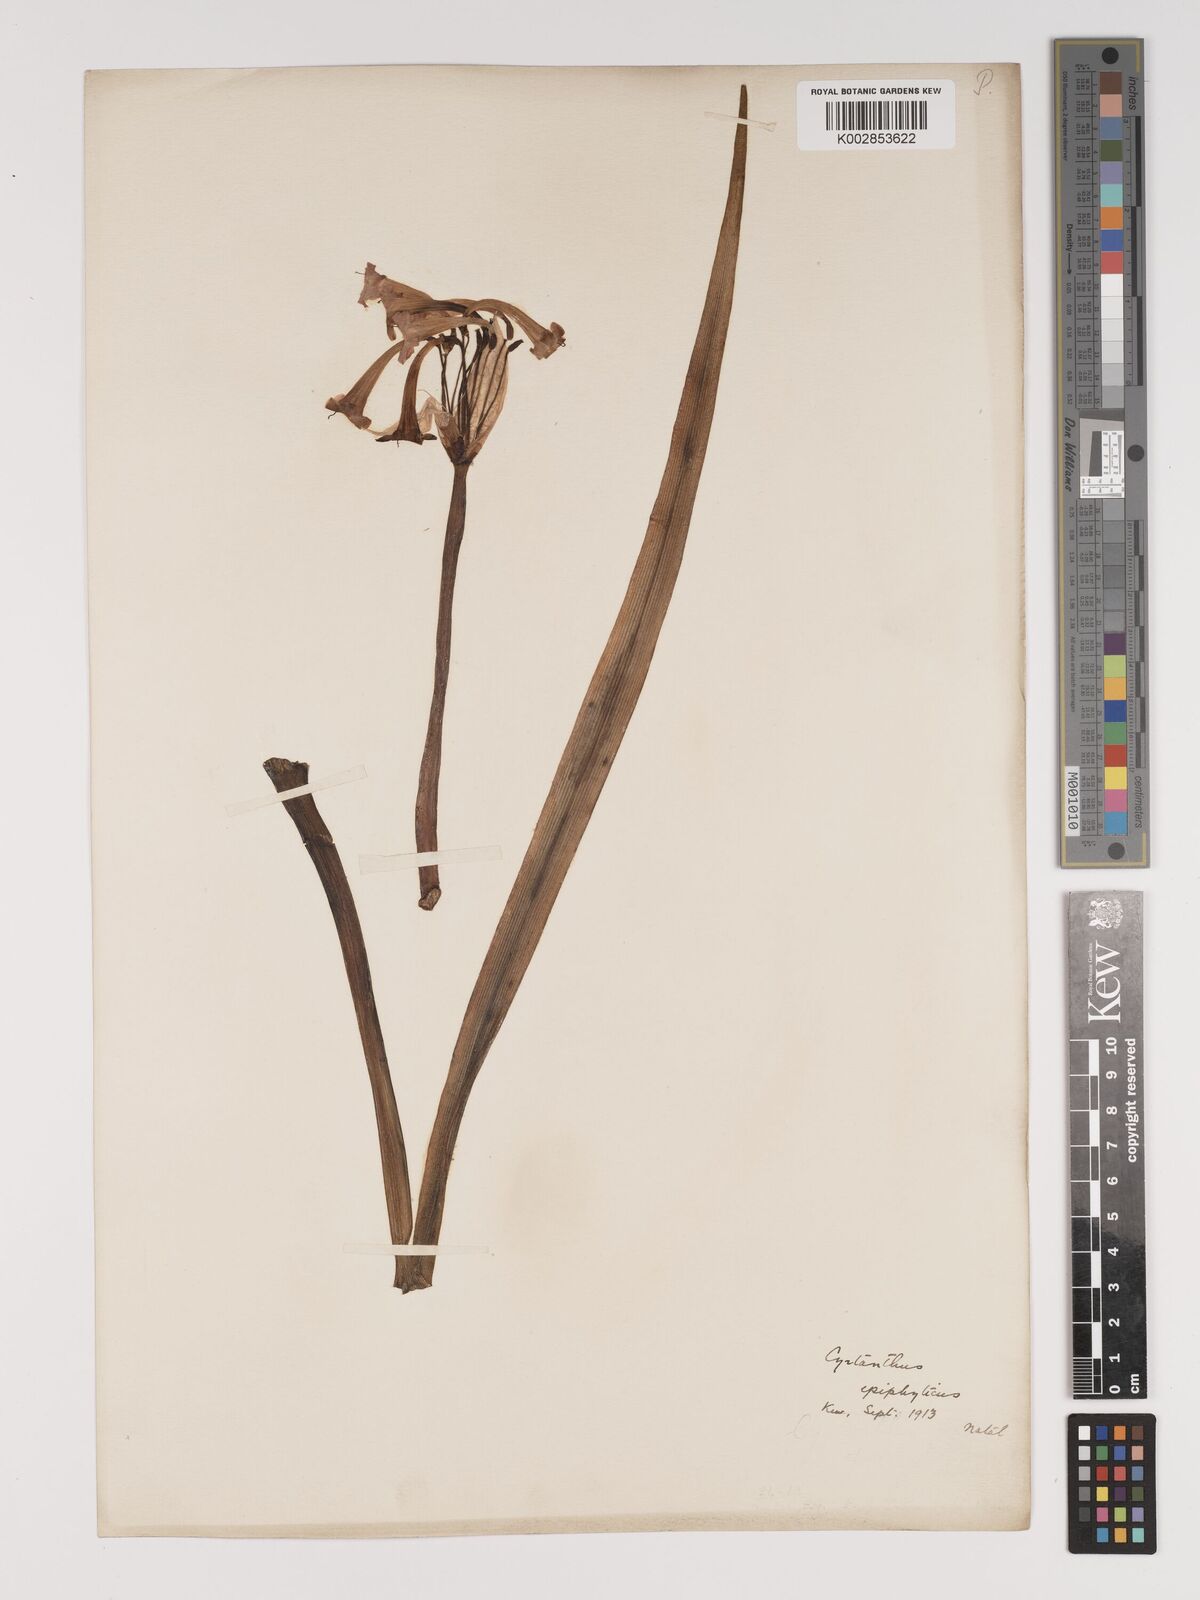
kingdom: Plantae
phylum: Tracheophyta
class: Liliopsida
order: Asparagales
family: Amaryllidaceae
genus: Cyrtanthus
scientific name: Cyrtanthus epiphyticus
